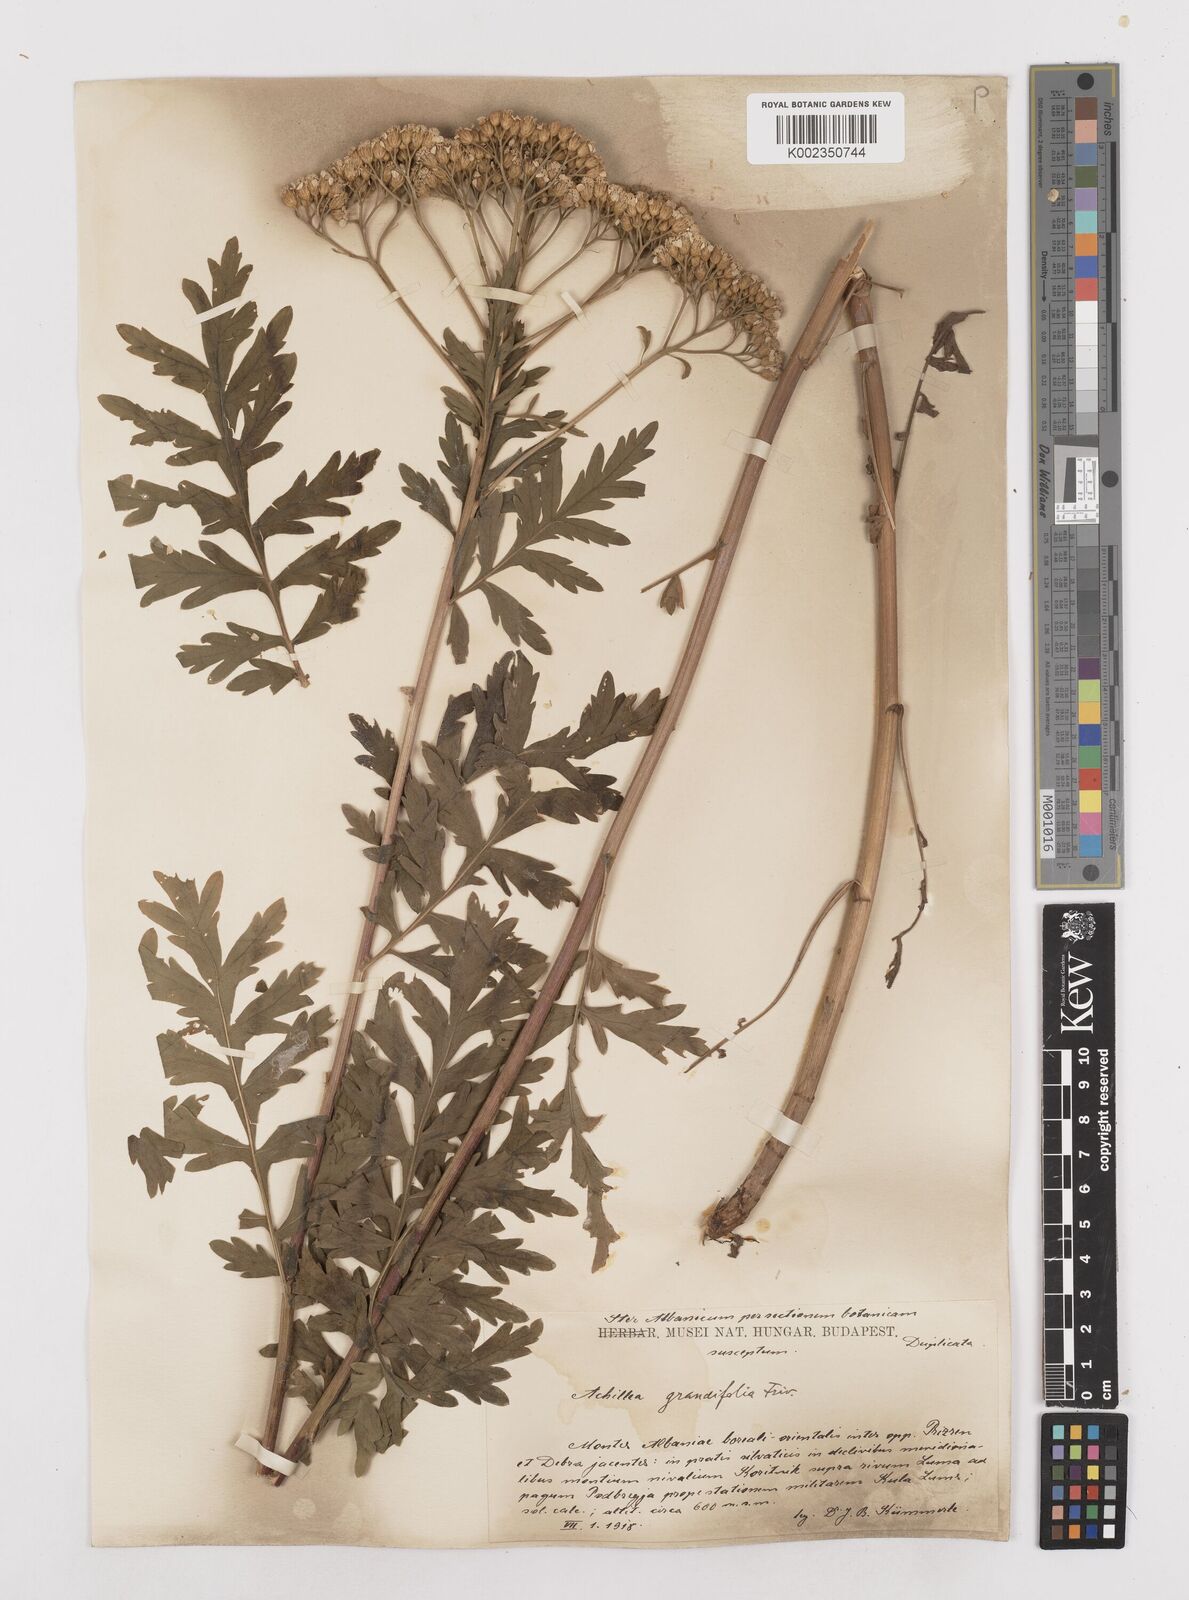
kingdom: Plantae
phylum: Tracheophyta
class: Magnoliopsida
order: Asterales
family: Asteraceae
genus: Achillea
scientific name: Achillea grandifolia
